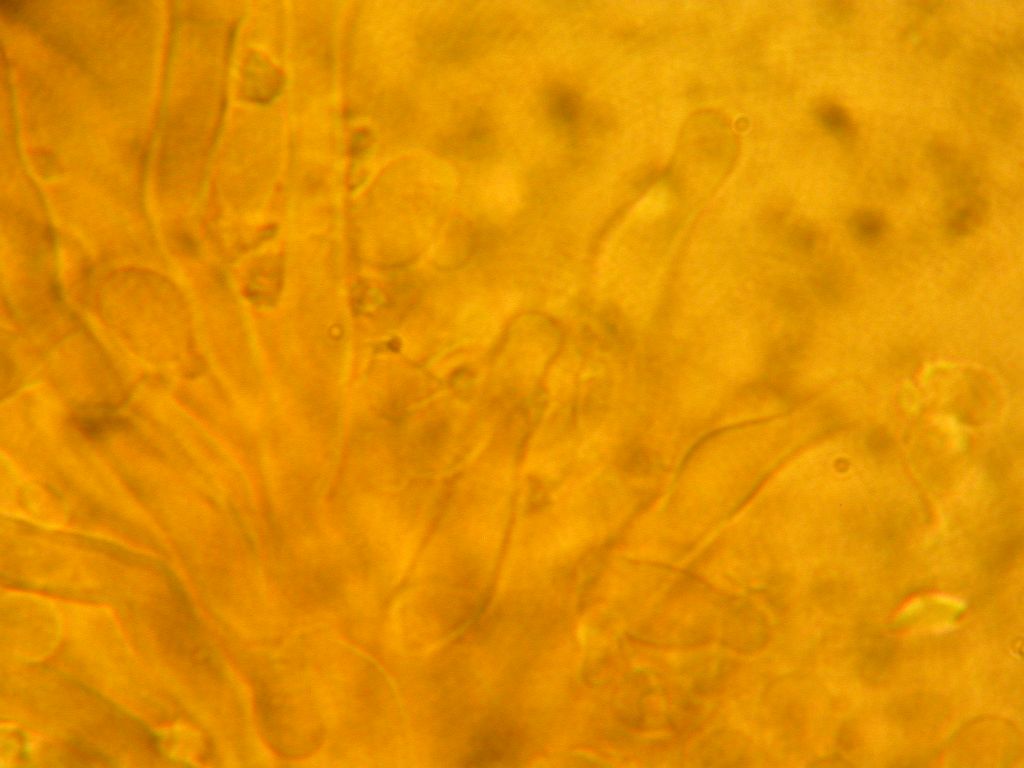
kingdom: Fungi
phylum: Basidiomycota
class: Agaricomycetes
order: Hymenochaetales
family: Schizoporaceae
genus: Xylodon
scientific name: Xylodon asper
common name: fjern tandsvamp
